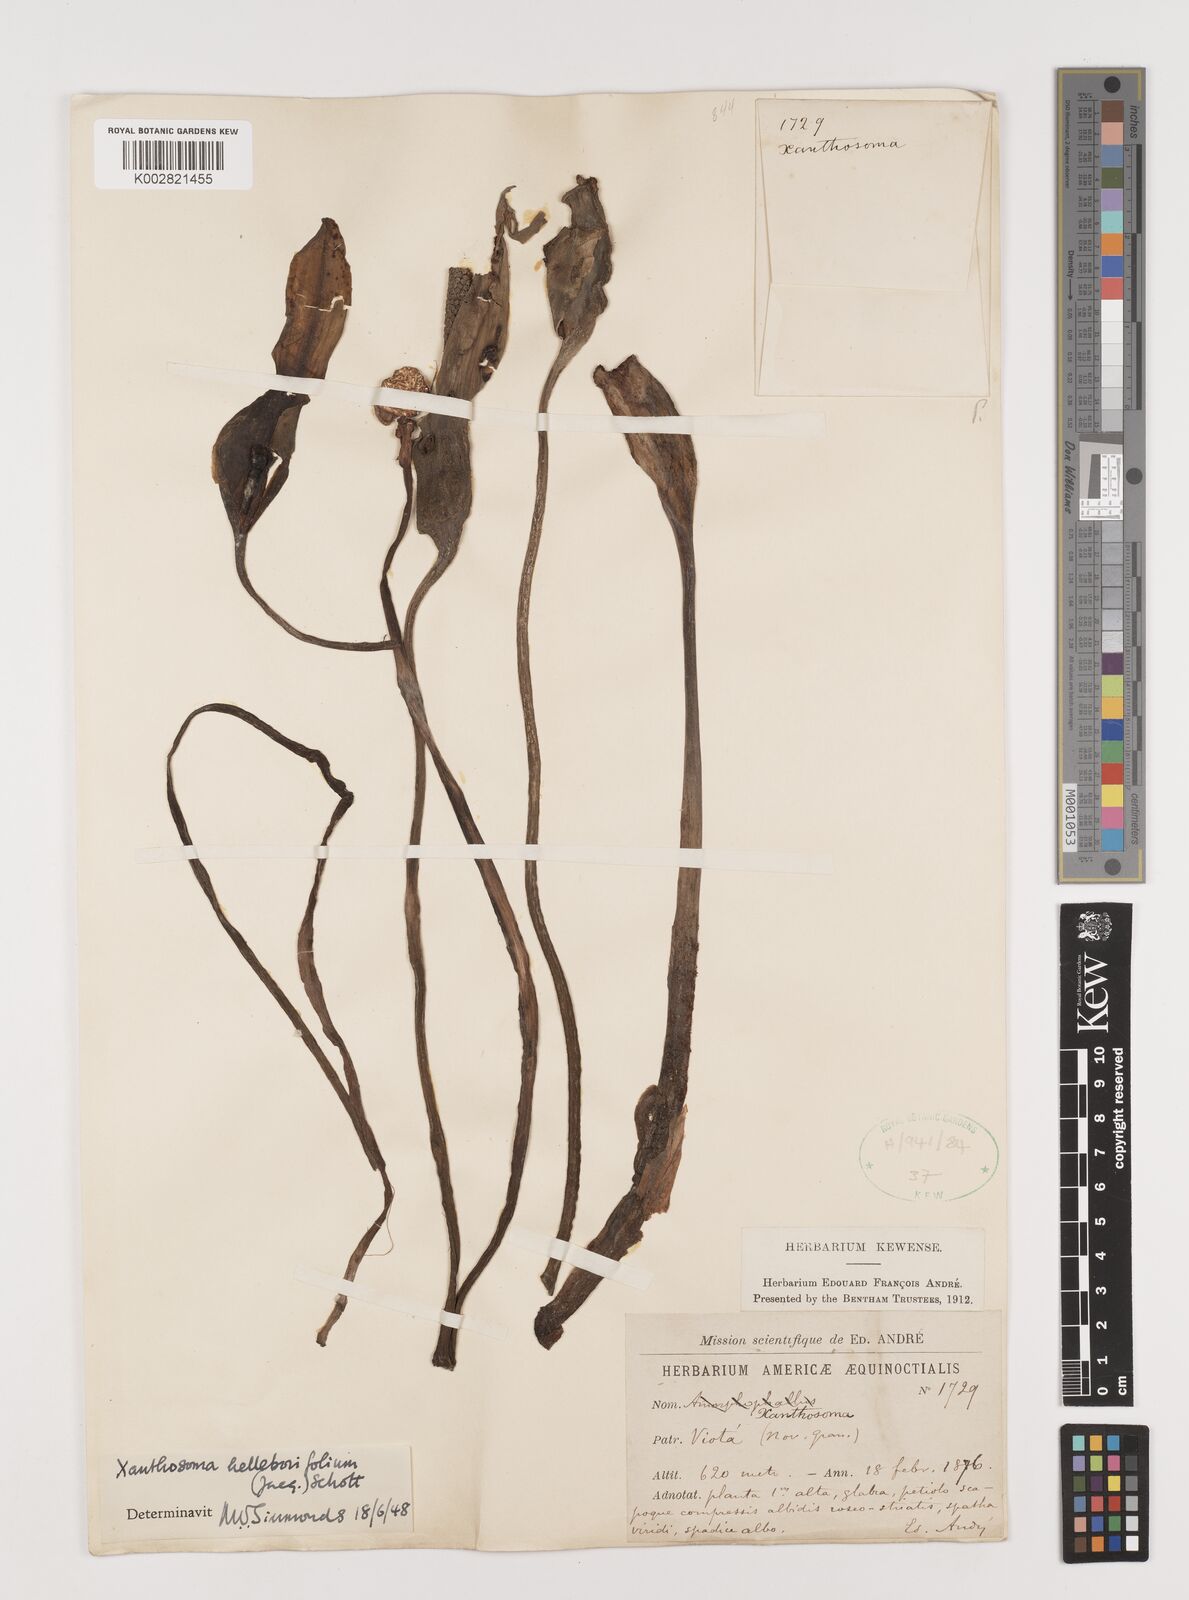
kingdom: Plantae
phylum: Tracheophyta
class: Liliopsida
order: Alismatales
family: Araceae
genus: Xanthosoma
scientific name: Xanthosoma helleborifolium
